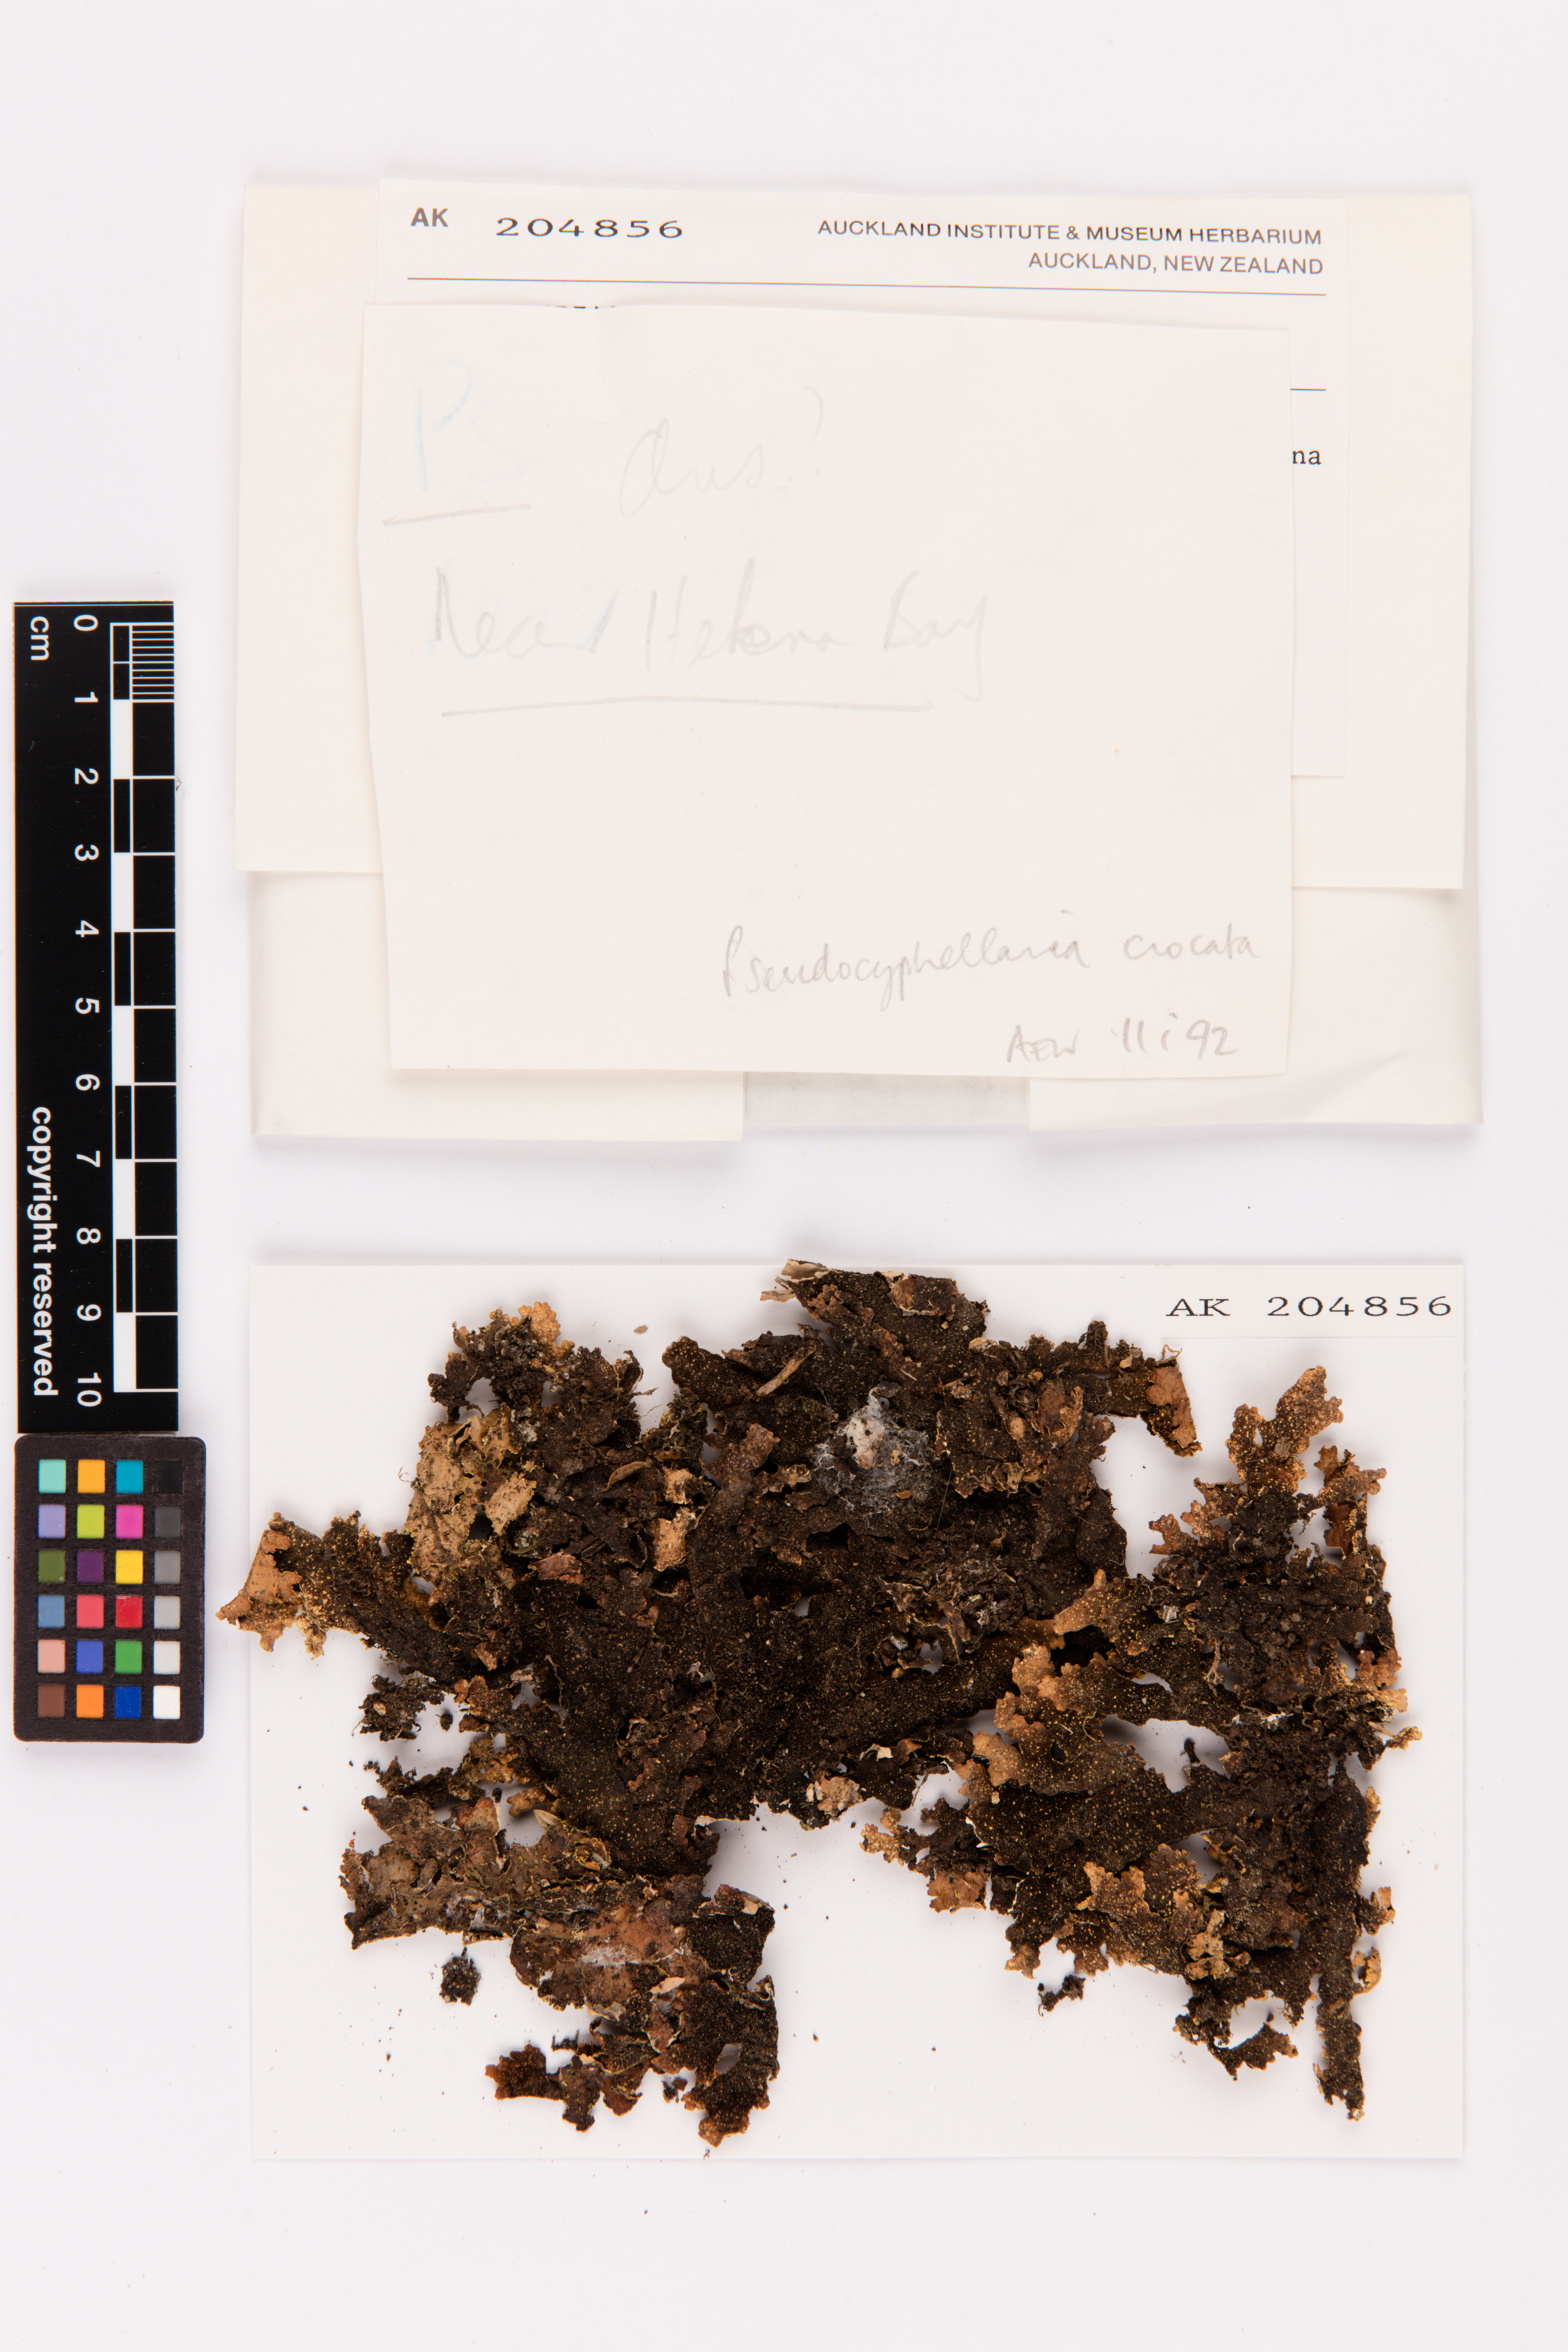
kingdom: Fungi
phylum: Ascomycota
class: Lecanoromycetes
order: Peltigerales
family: Lobariaceae
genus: Pseudocyphellaria
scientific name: Pseudocyphellaria crocata
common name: Golden specklebelly
